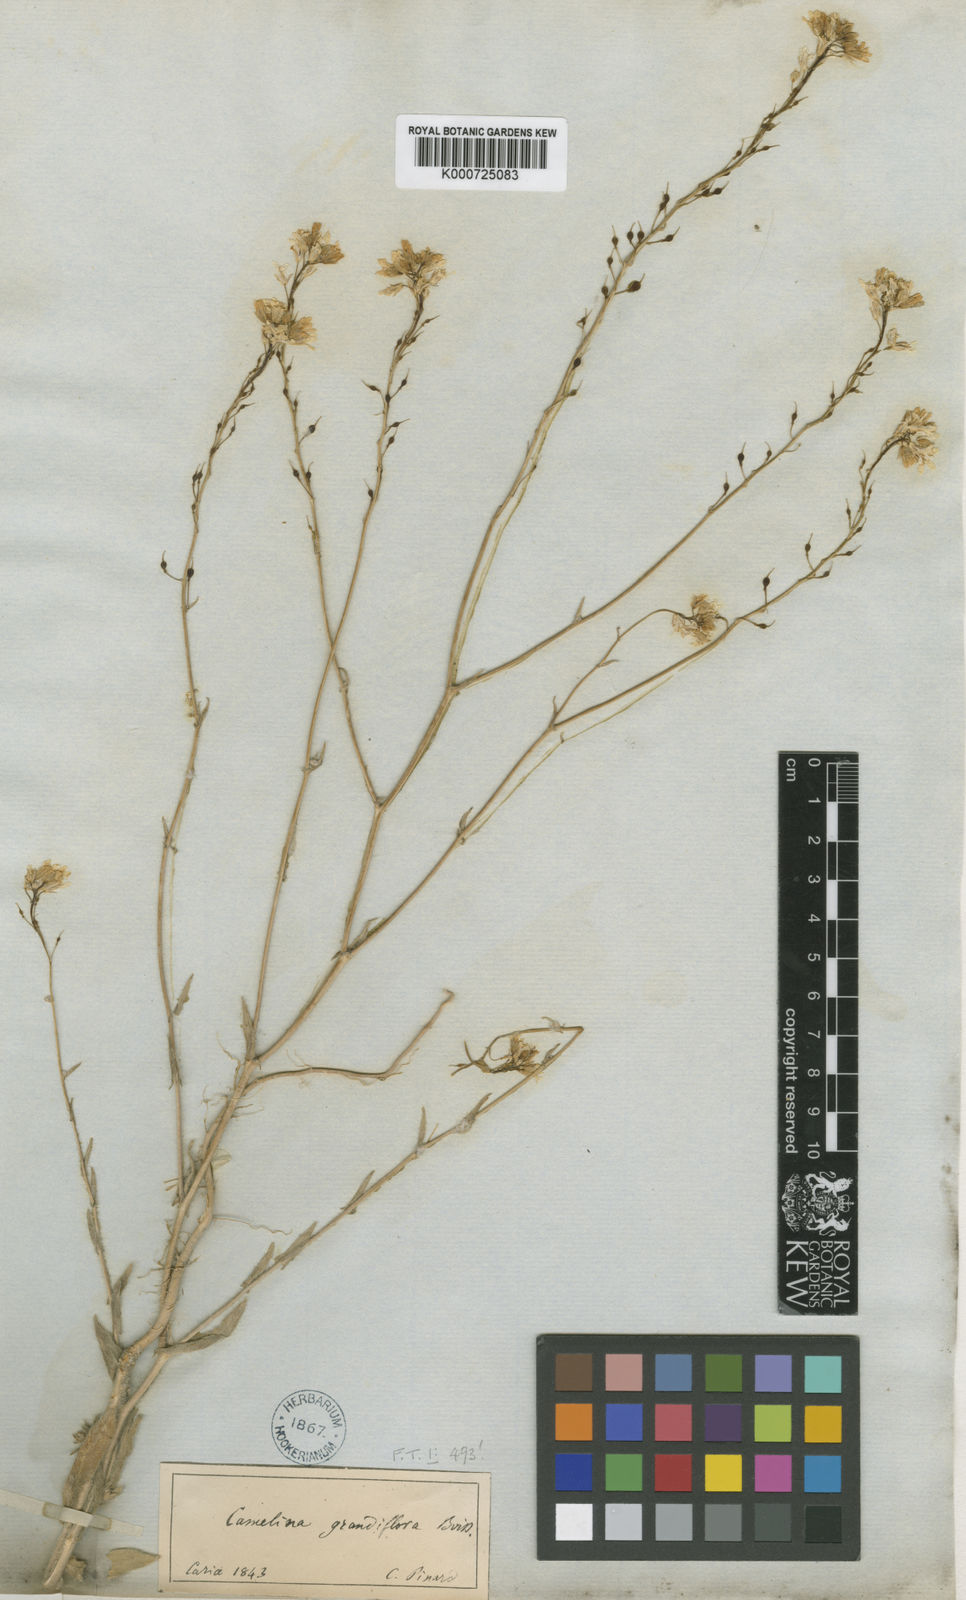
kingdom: Plantae
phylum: Tracheophyta
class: Magnoliopsida
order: Brassicales
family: Brassicaceae
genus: Camelina
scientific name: Camelina grandiflora
